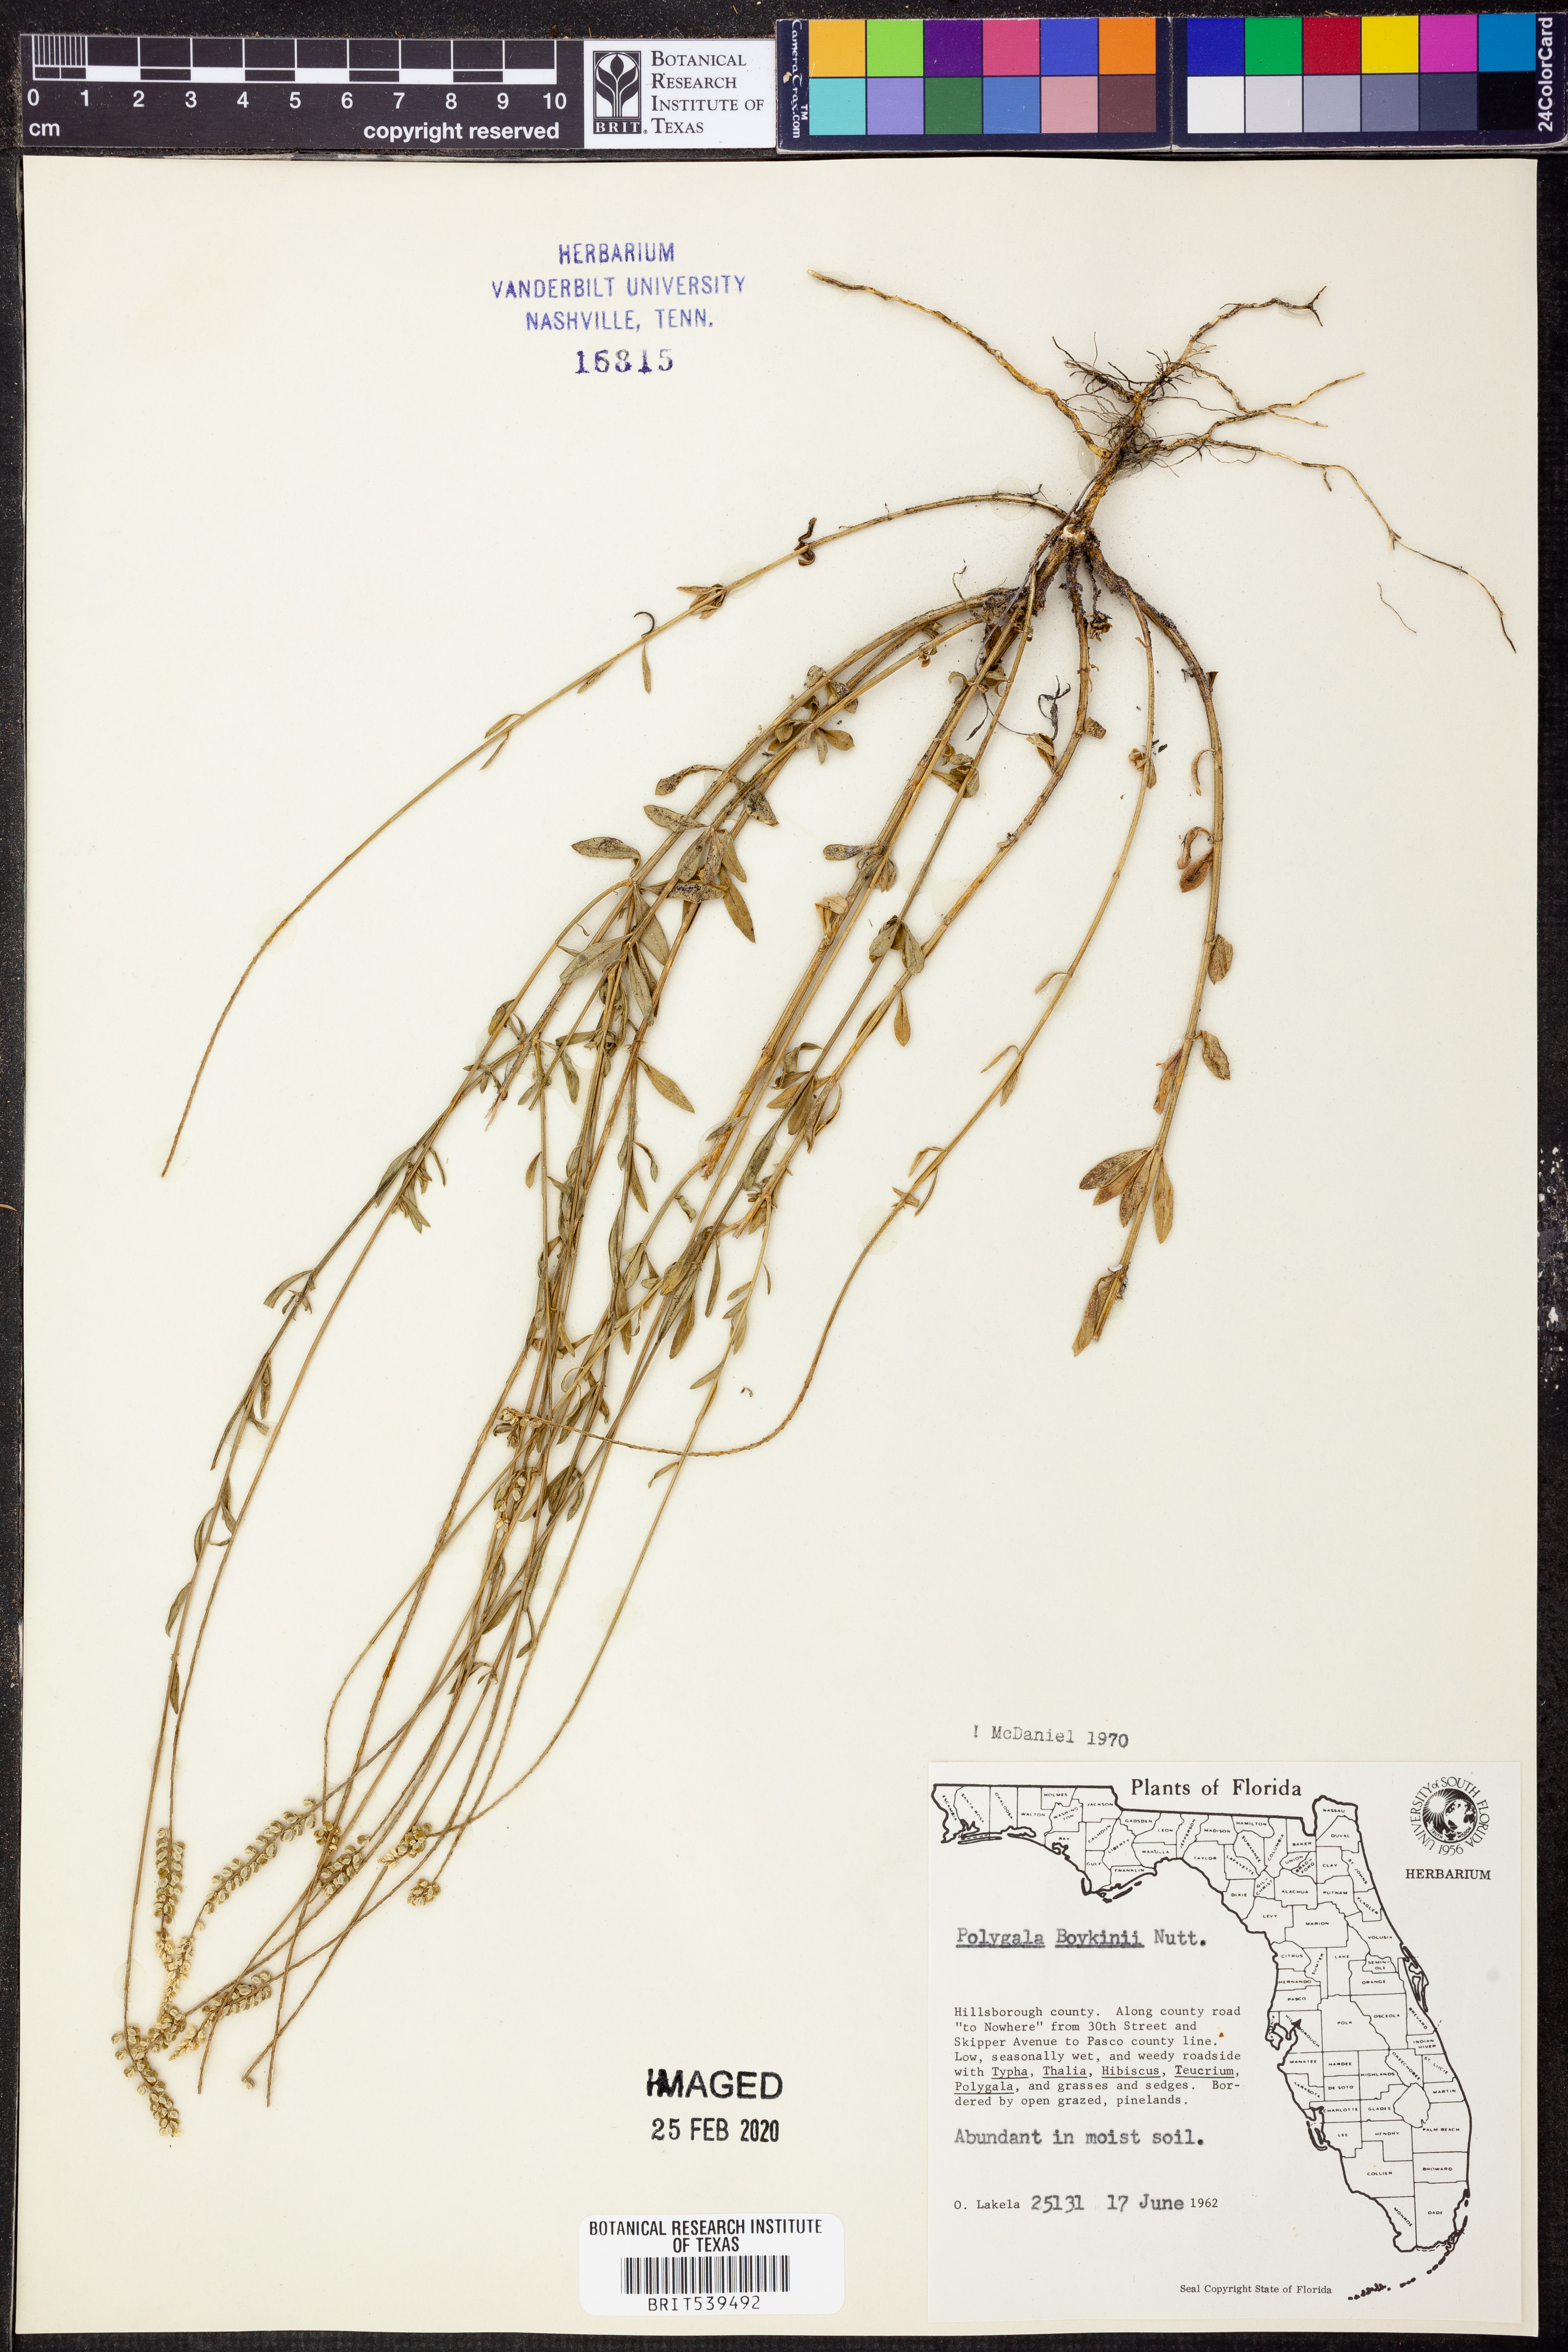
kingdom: Plantae
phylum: Tracheophyta
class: Magnoliopsida
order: Fabales
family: Polygalaceae
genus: Polygala
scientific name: Polygala boykinii
